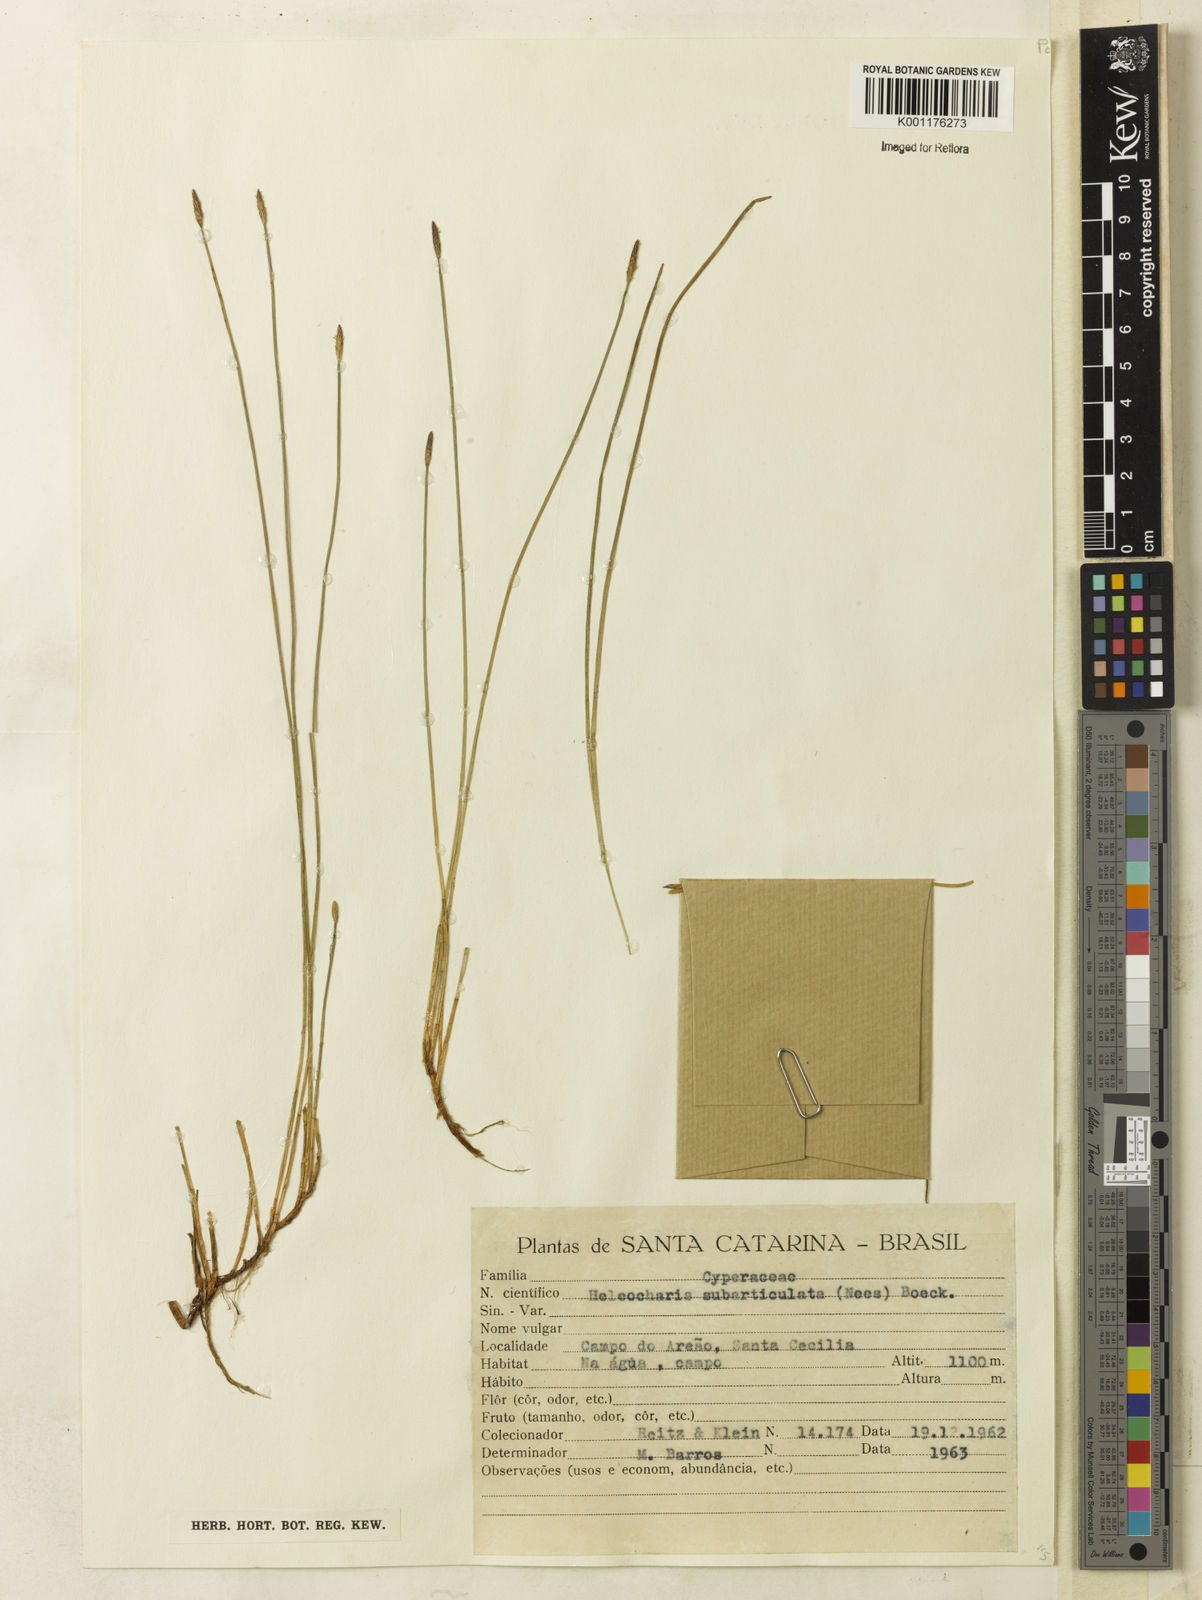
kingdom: Plantae
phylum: Tracheophyta
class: Liliopsida
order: Poales
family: Cyperaceae
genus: Eleocharis
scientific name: Eleocharis subarticulata
